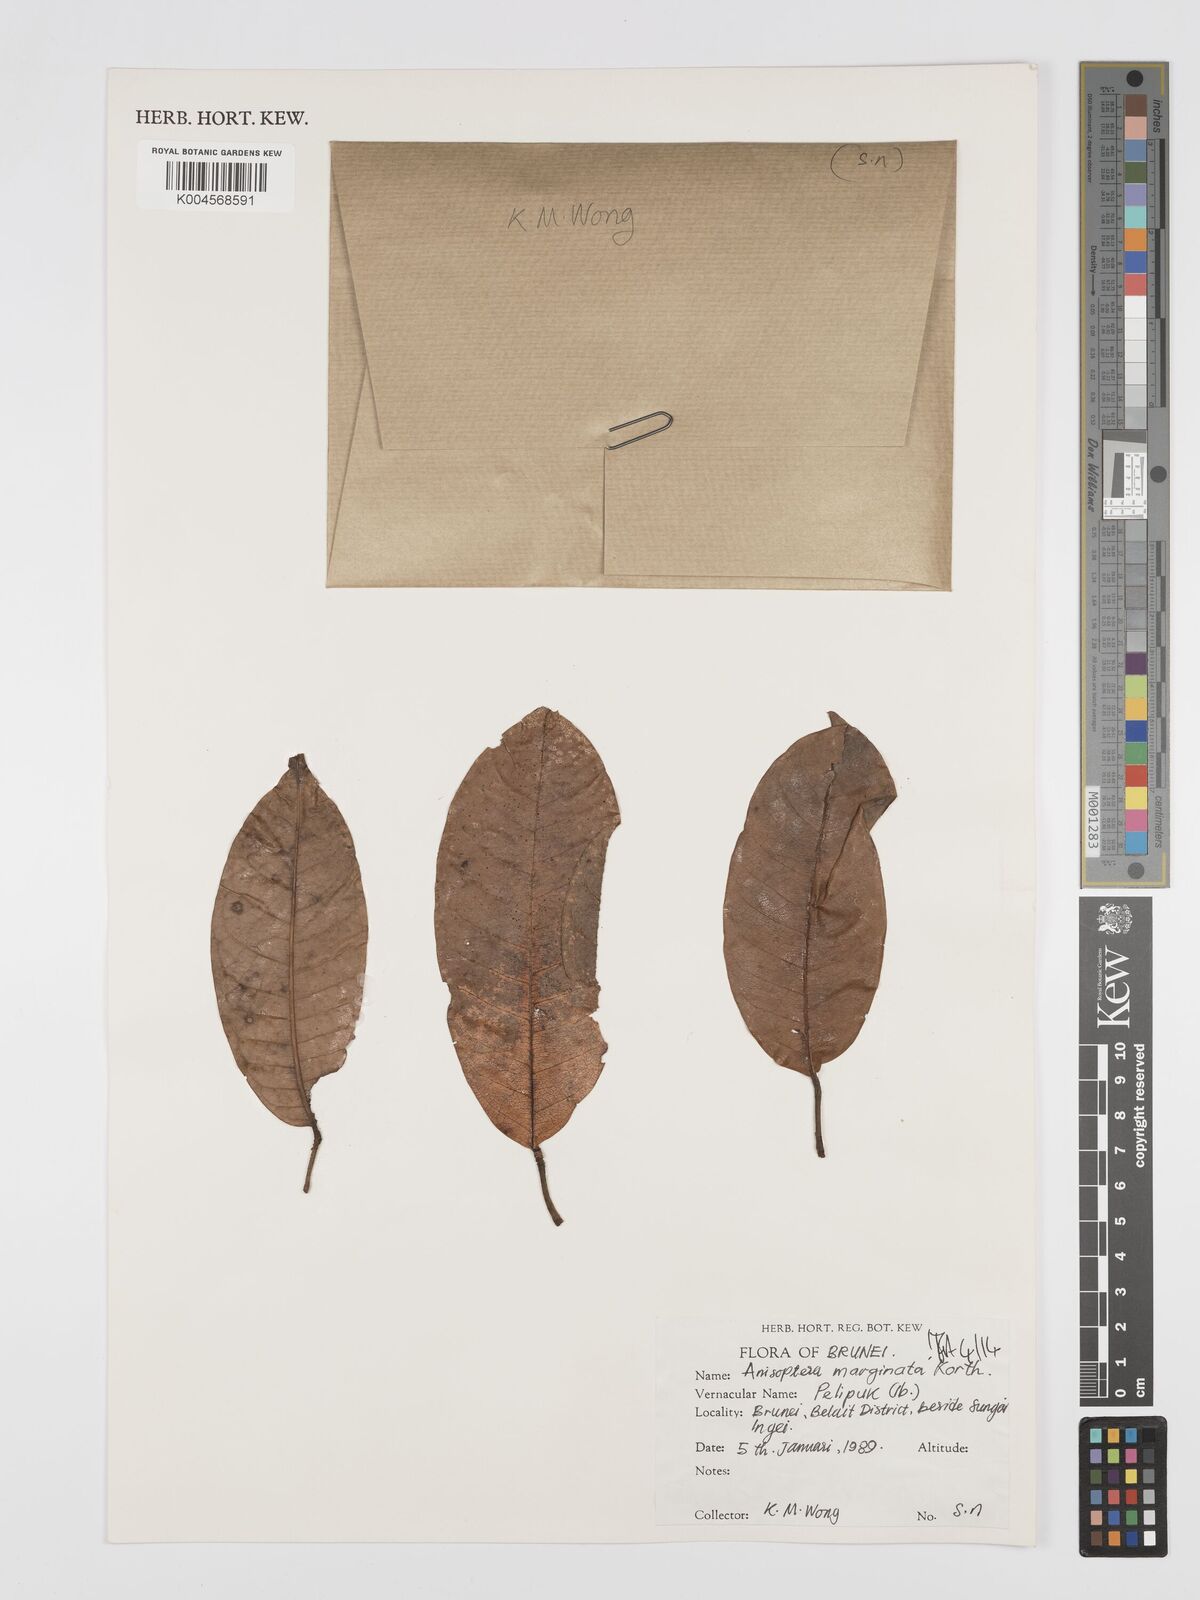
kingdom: Plantae
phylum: Tracheophyta
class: Magnoliopsida
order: Malvales
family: Dipterocarpaceae
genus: Anisoptera
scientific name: Anisoptera marginata
